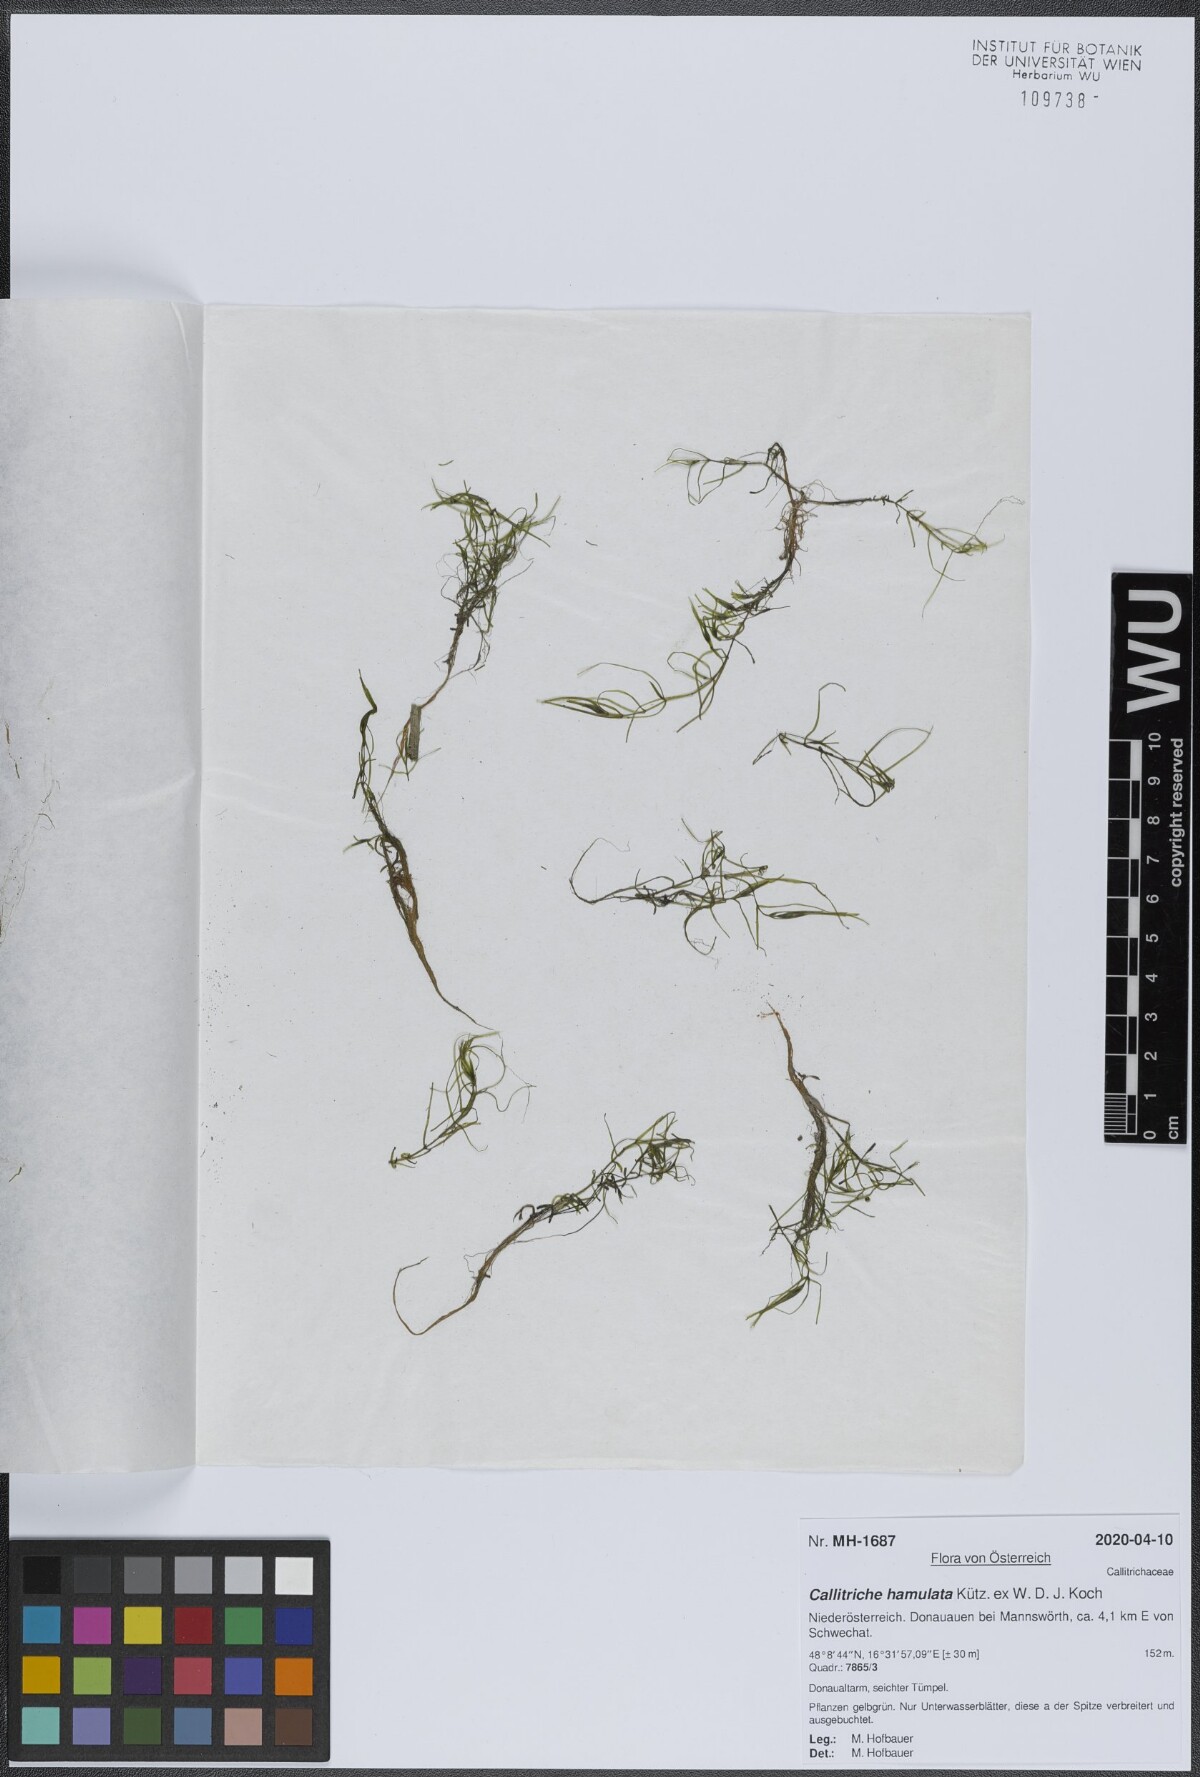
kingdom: Plantae
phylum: Tracheophyta
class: Magnoliopsida
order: Lamiales
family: Plantaginaceae
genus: Callitriche
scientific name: Callitriche hamulata
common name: Intermediate water-starwort
